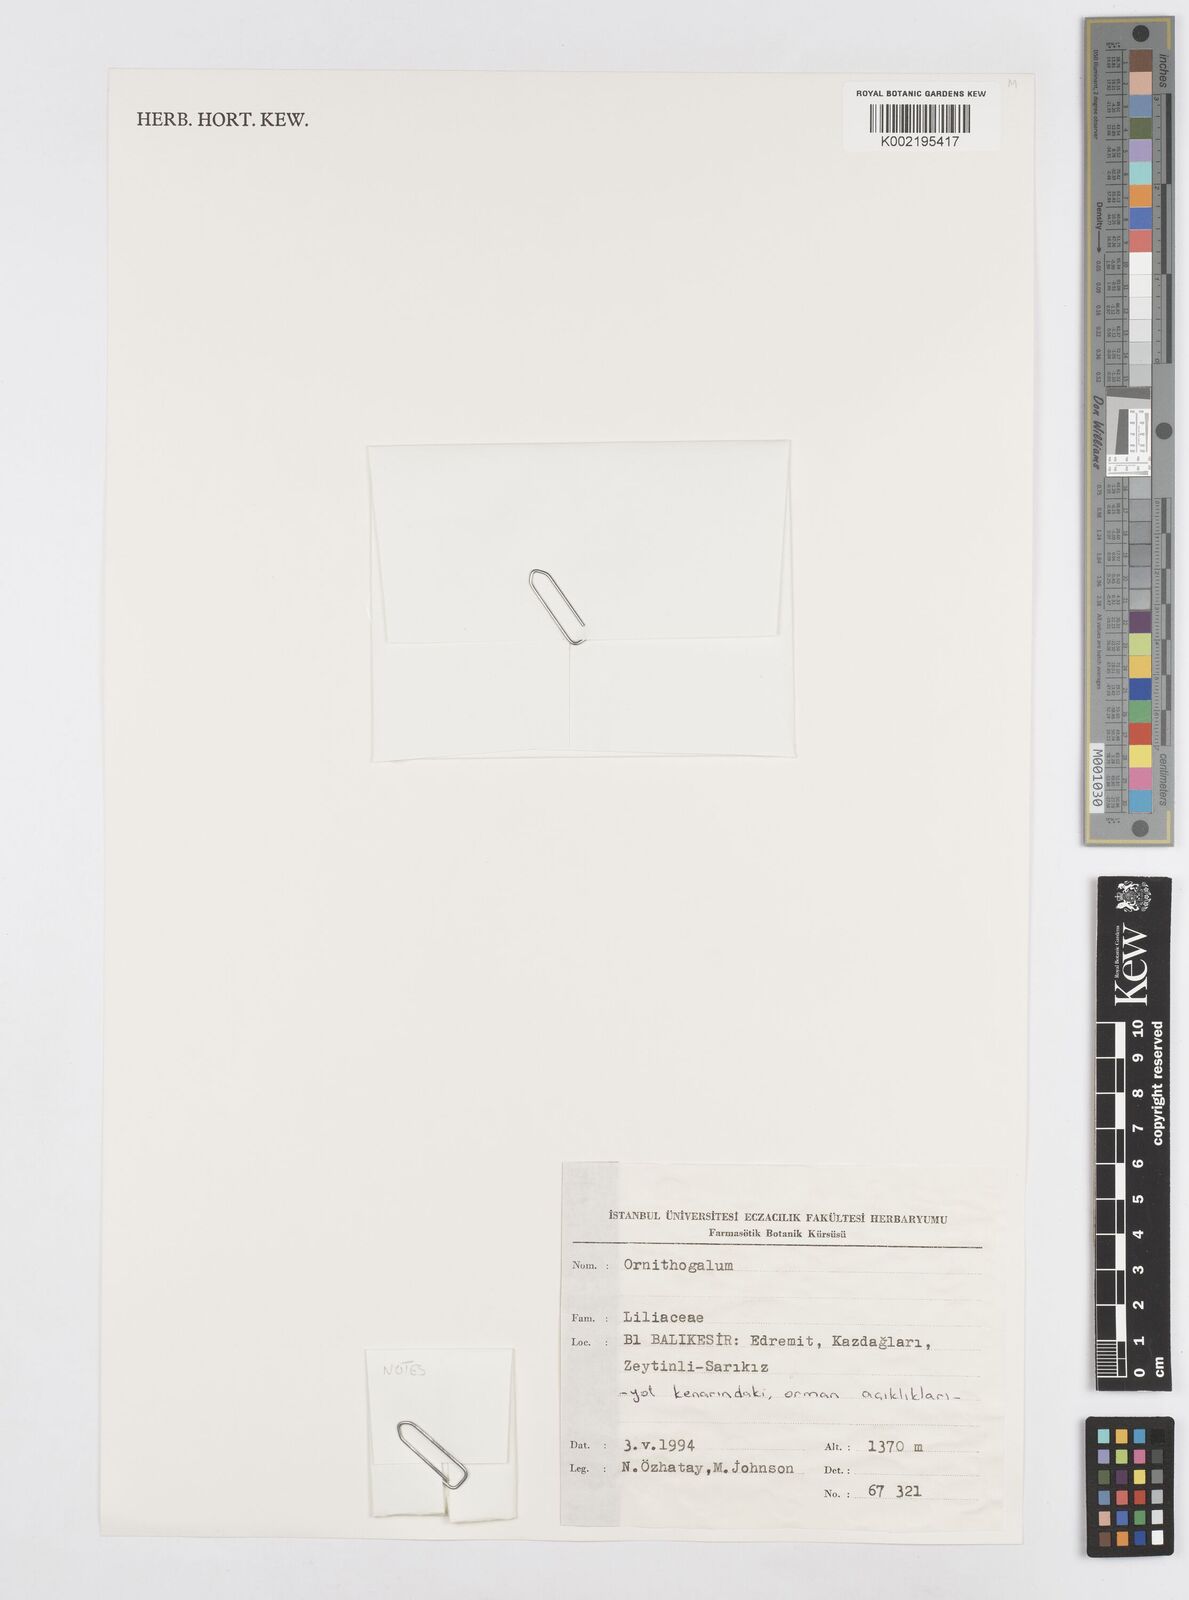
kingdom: Plantae
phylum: Tracheophyta
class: Liliopsida
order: Asparagales
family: Asparagaceae
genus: Ornithogalum
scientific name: Ornithogalum
